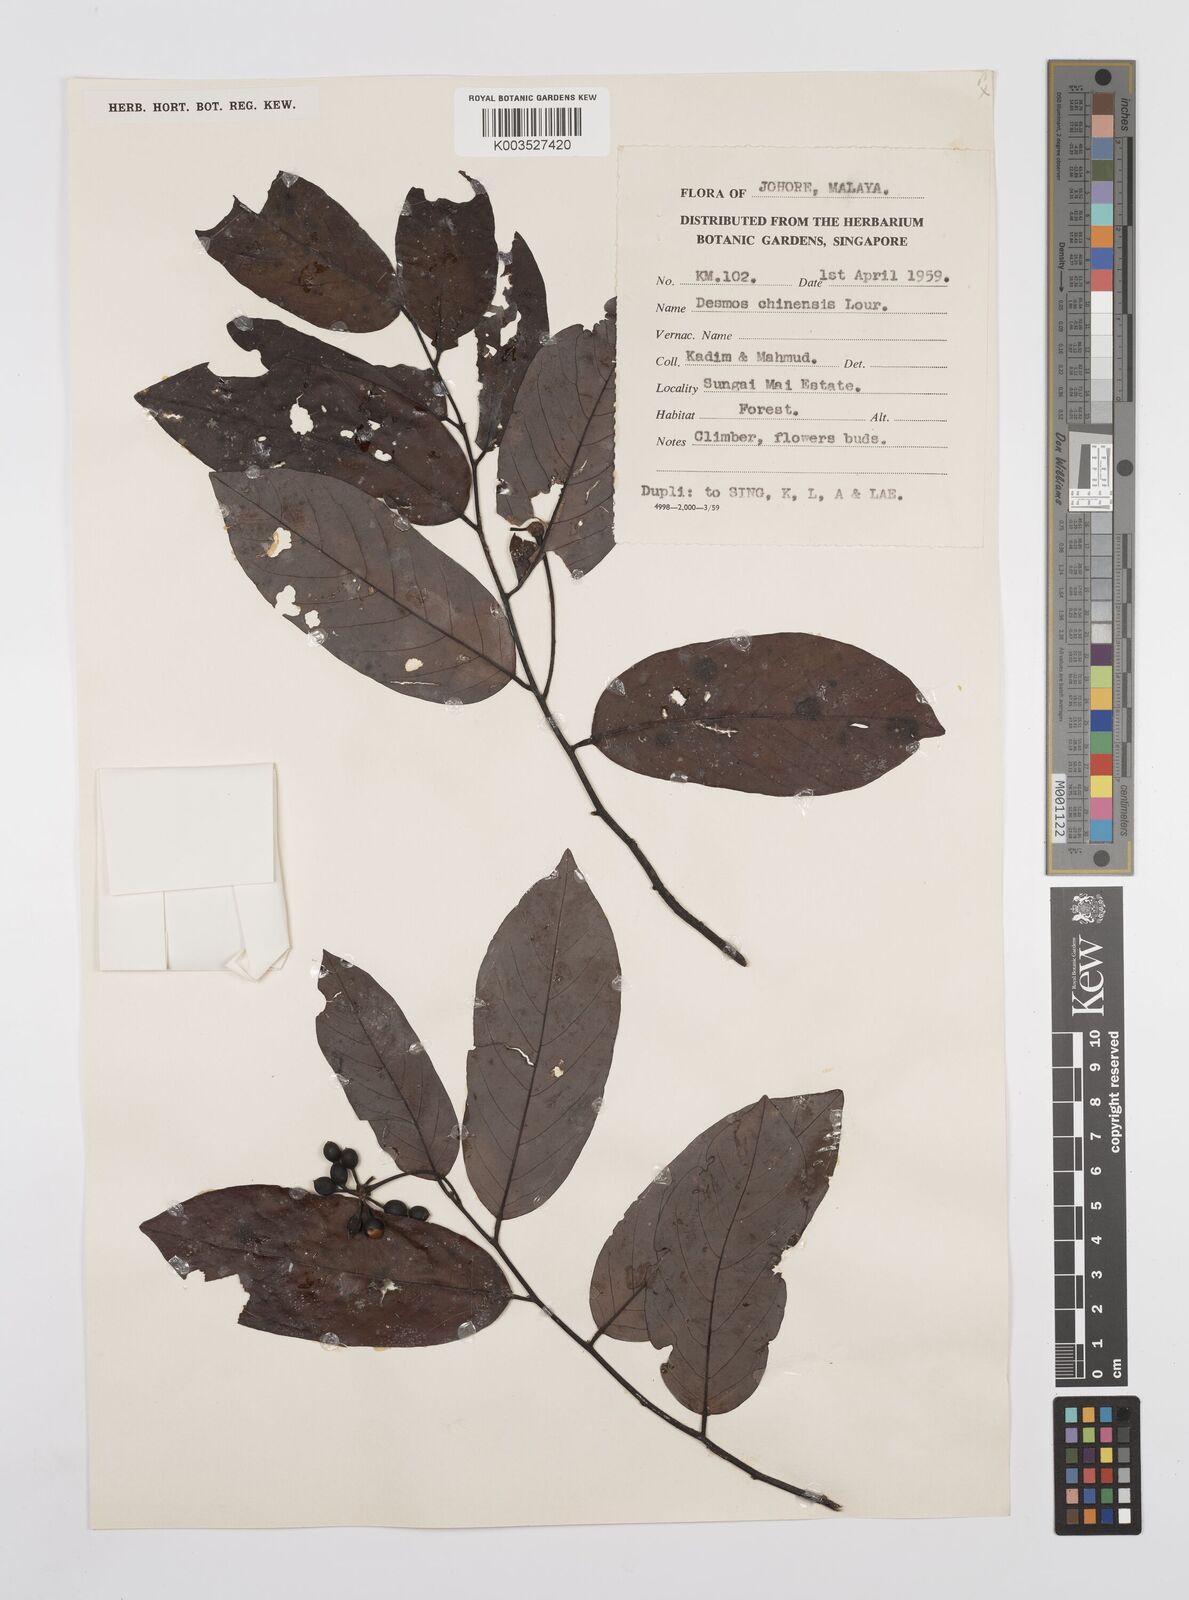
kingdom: Plantae
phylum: Tracheophyta
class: Magnoliopsida
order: Magnoliales
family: Annonaceae
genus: Desmos
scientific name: Desmos chinensis
